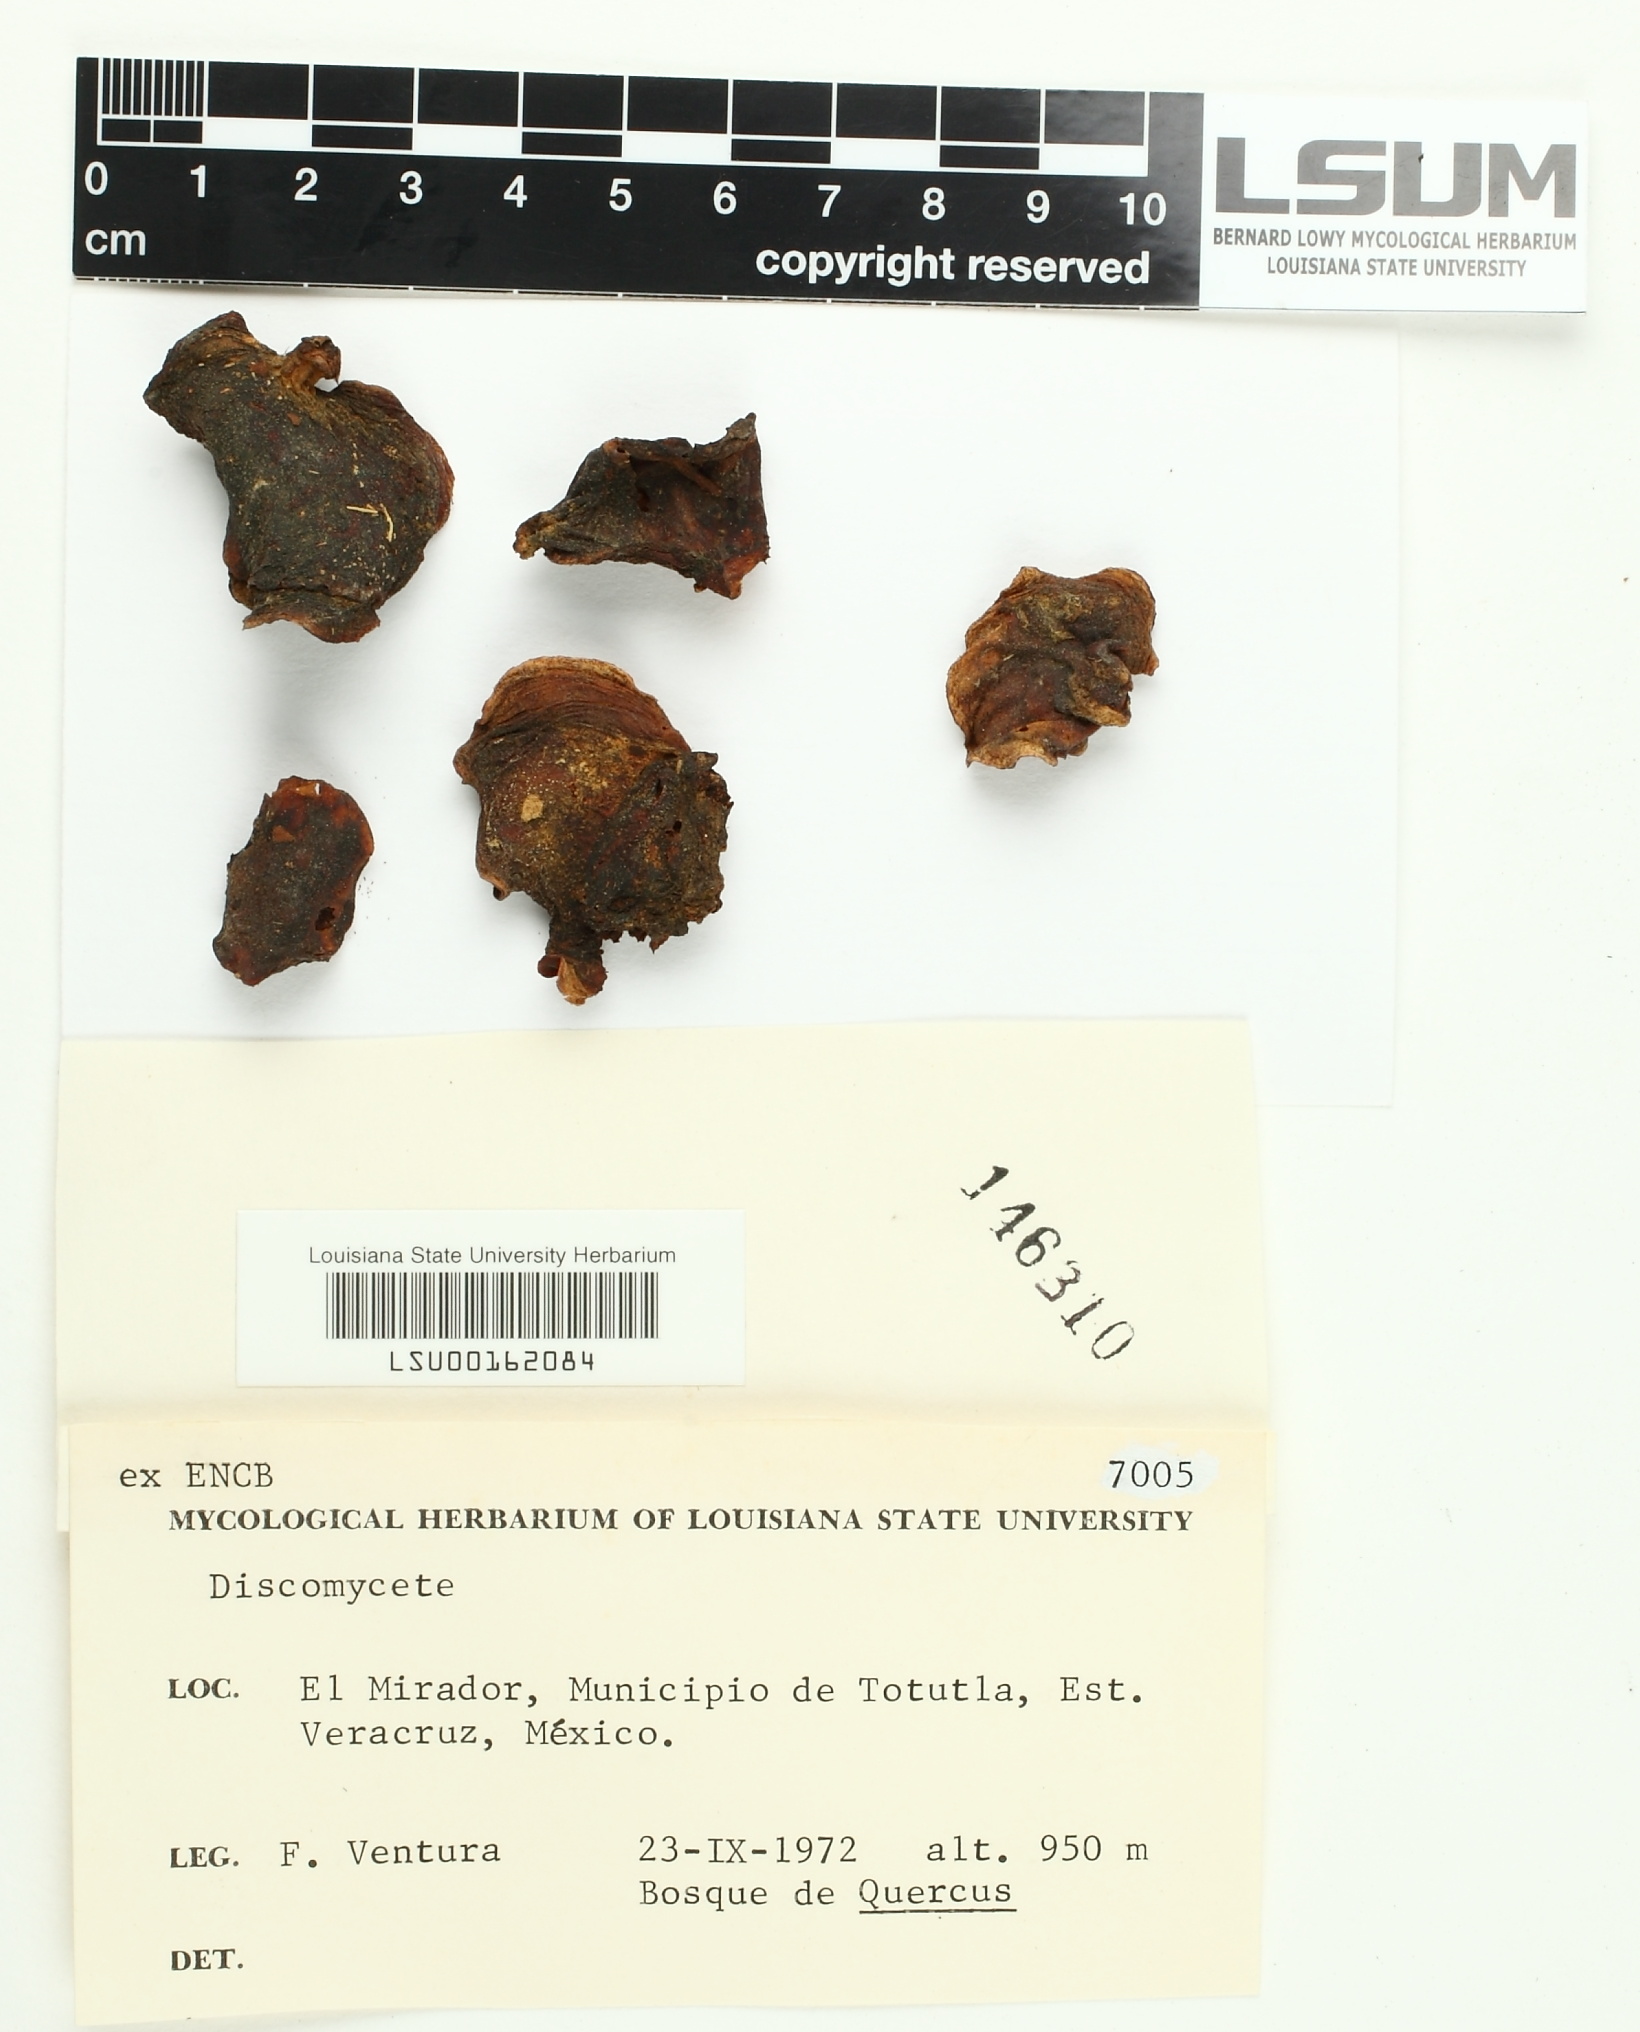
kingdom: Fungi
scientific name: Fungi
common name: Fungi
